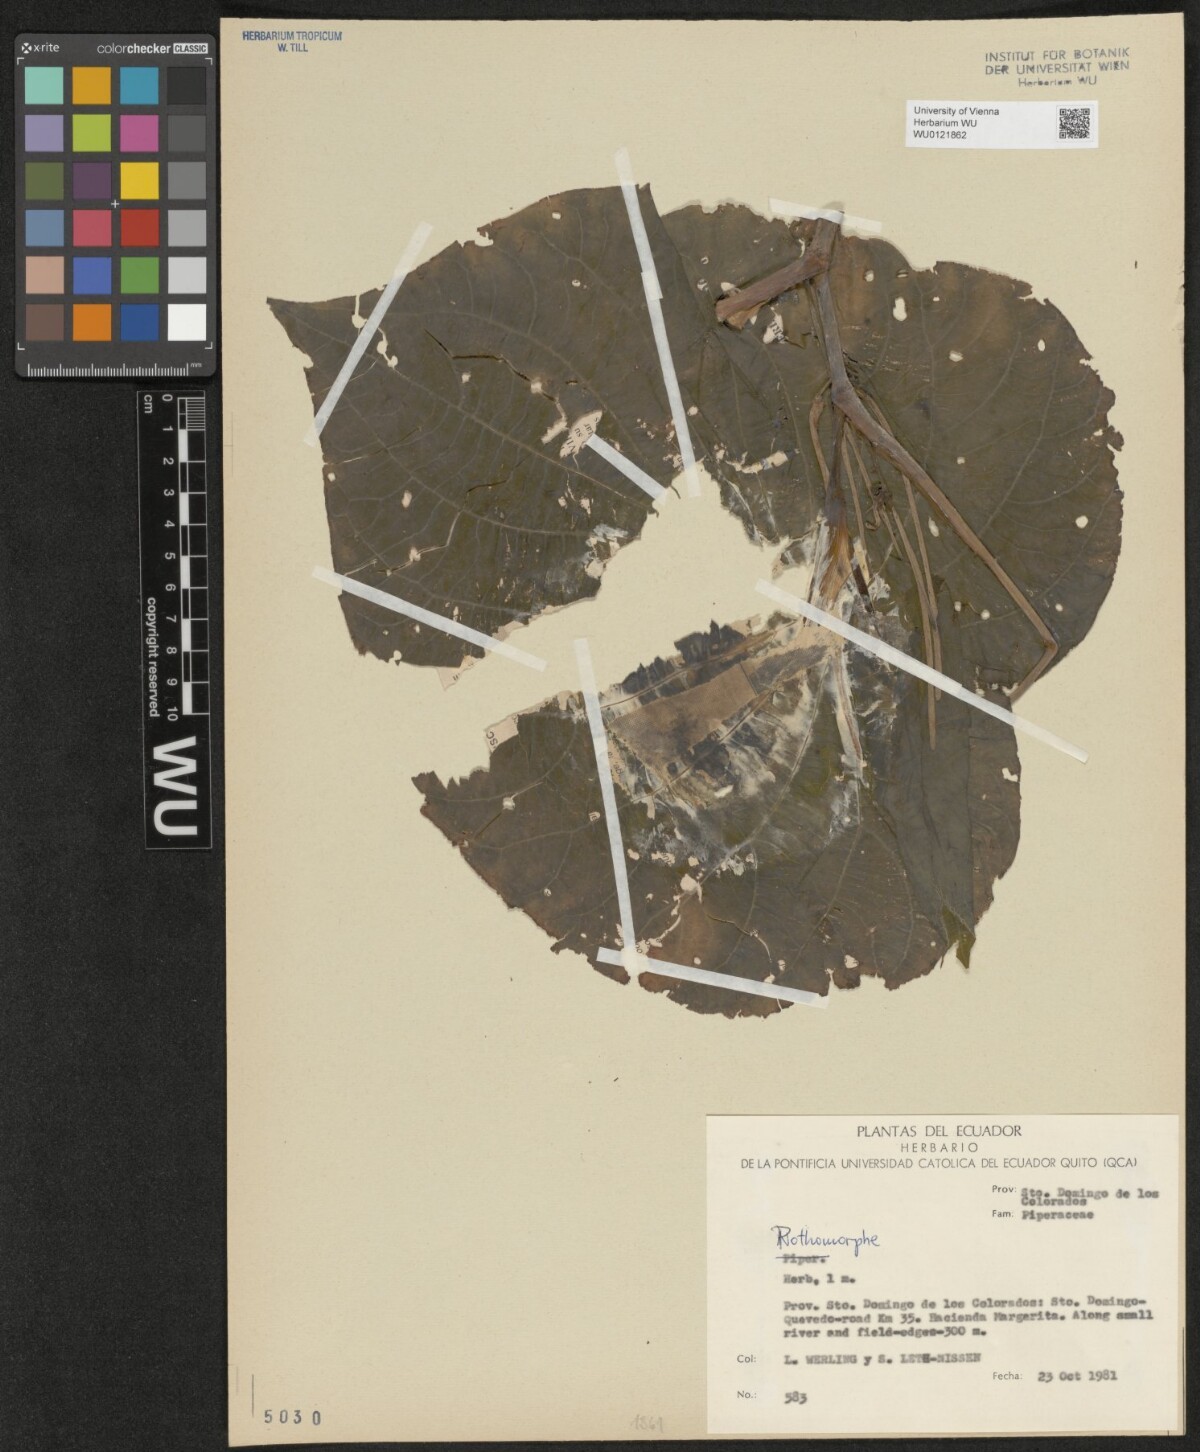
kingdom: Plantae
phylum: Tracheophyta
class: Magnoliopsida
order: Piperales
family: Piperaceae
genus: Piper
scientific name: Piper
